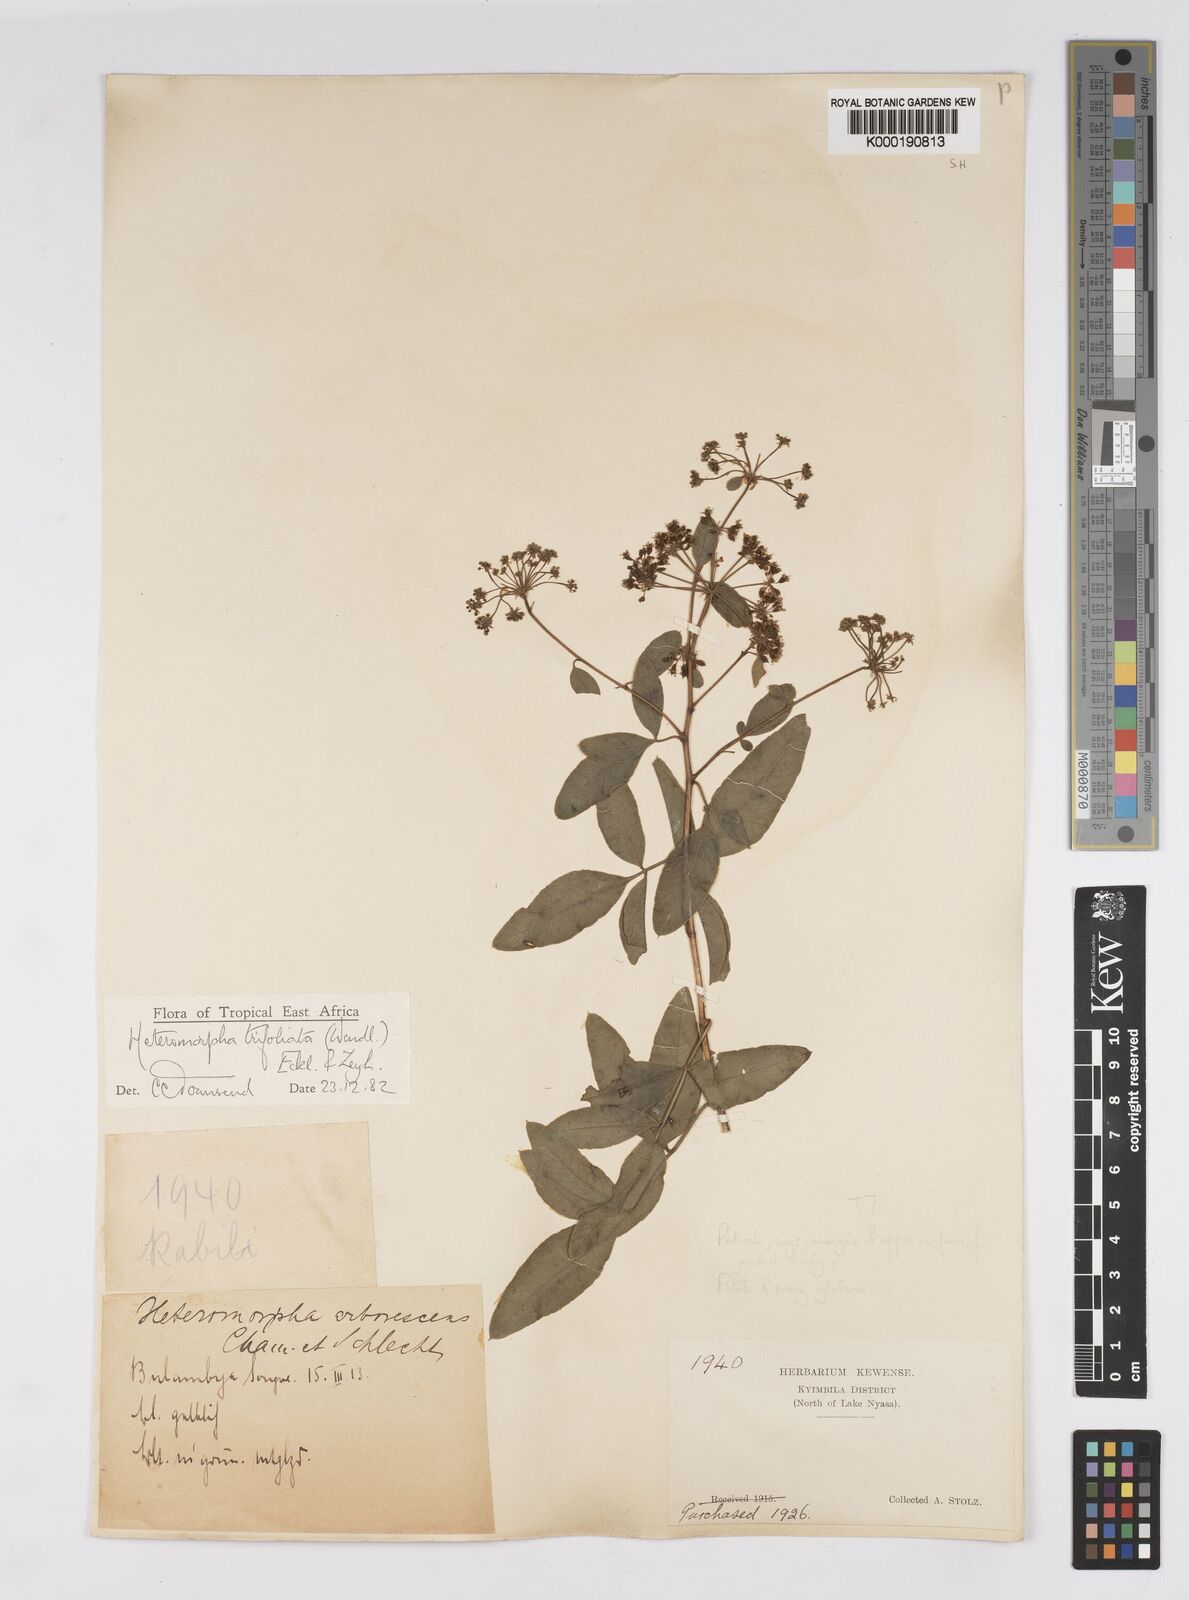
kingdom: Plantae
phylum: Tracheophyta
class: Magnoliopsida
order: Apiales
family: Apiaceae
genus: Heteromorpha
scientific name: Heteromorpha arborescens
